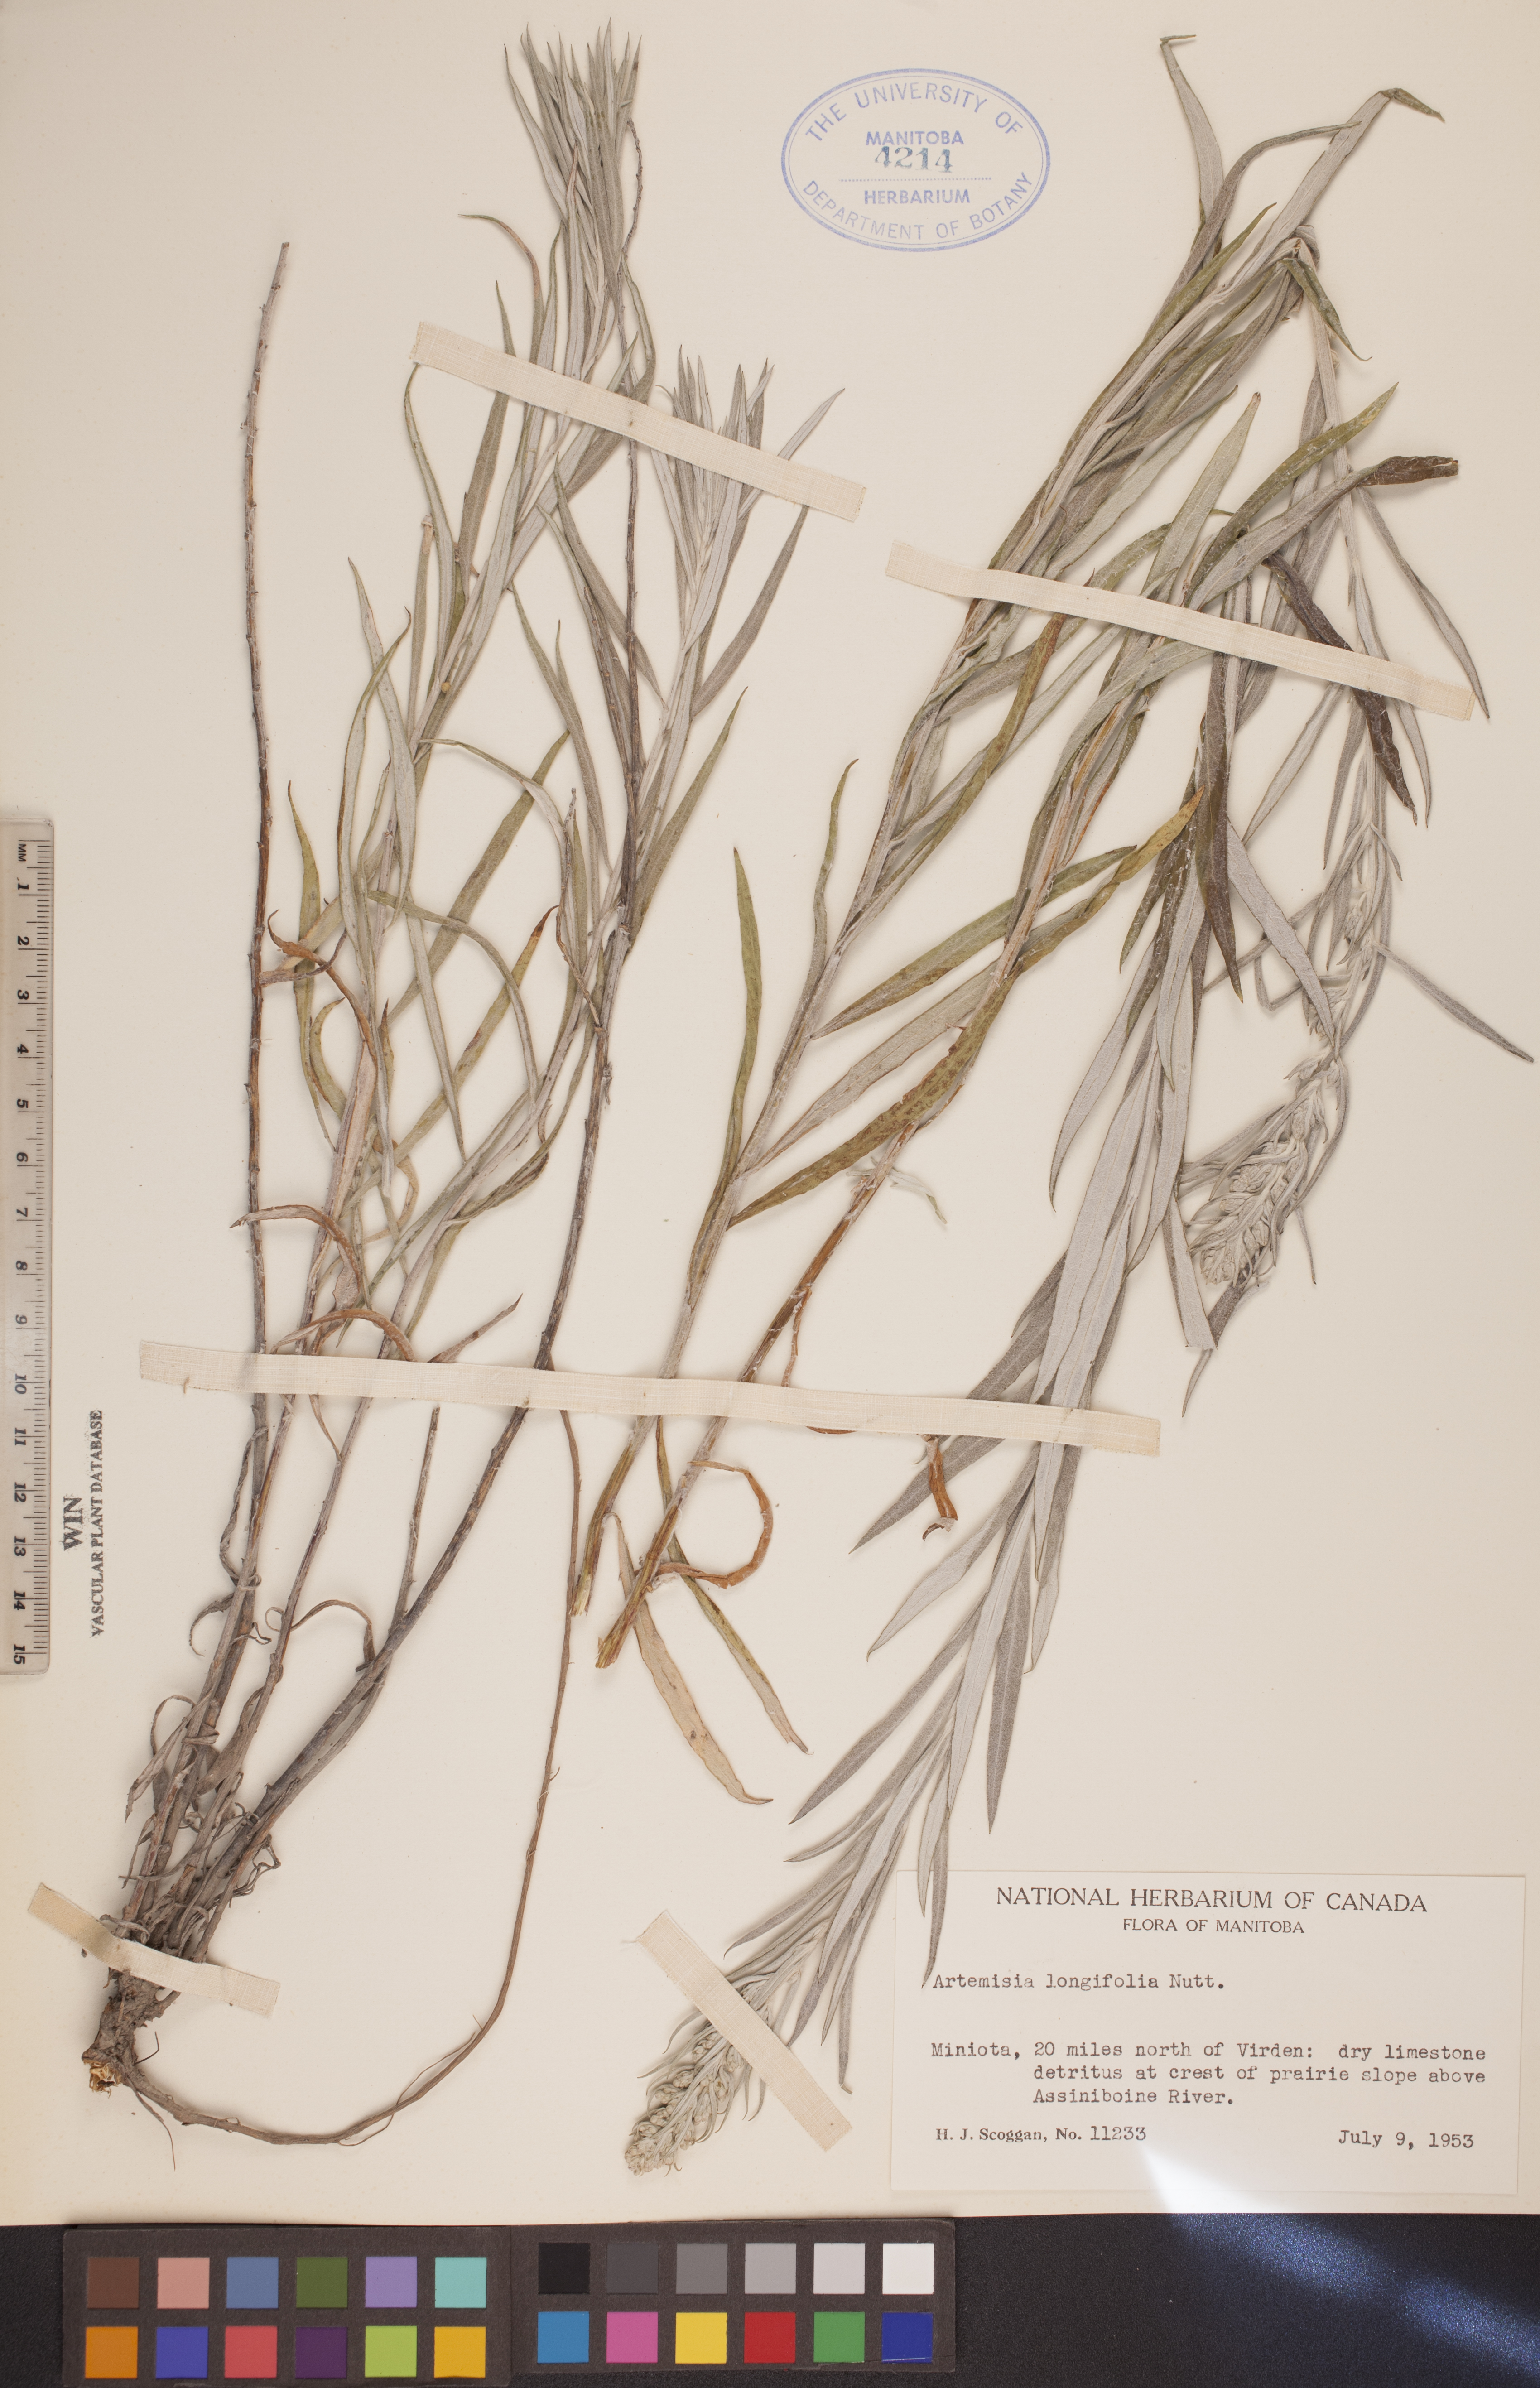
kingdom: Plantae
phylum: Tracheophyta
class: Magnoliopsida
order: Asterales
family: Asteraceae
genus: Artemisia
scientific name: Artemisia longifolia
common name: Long-leaved mugwort
